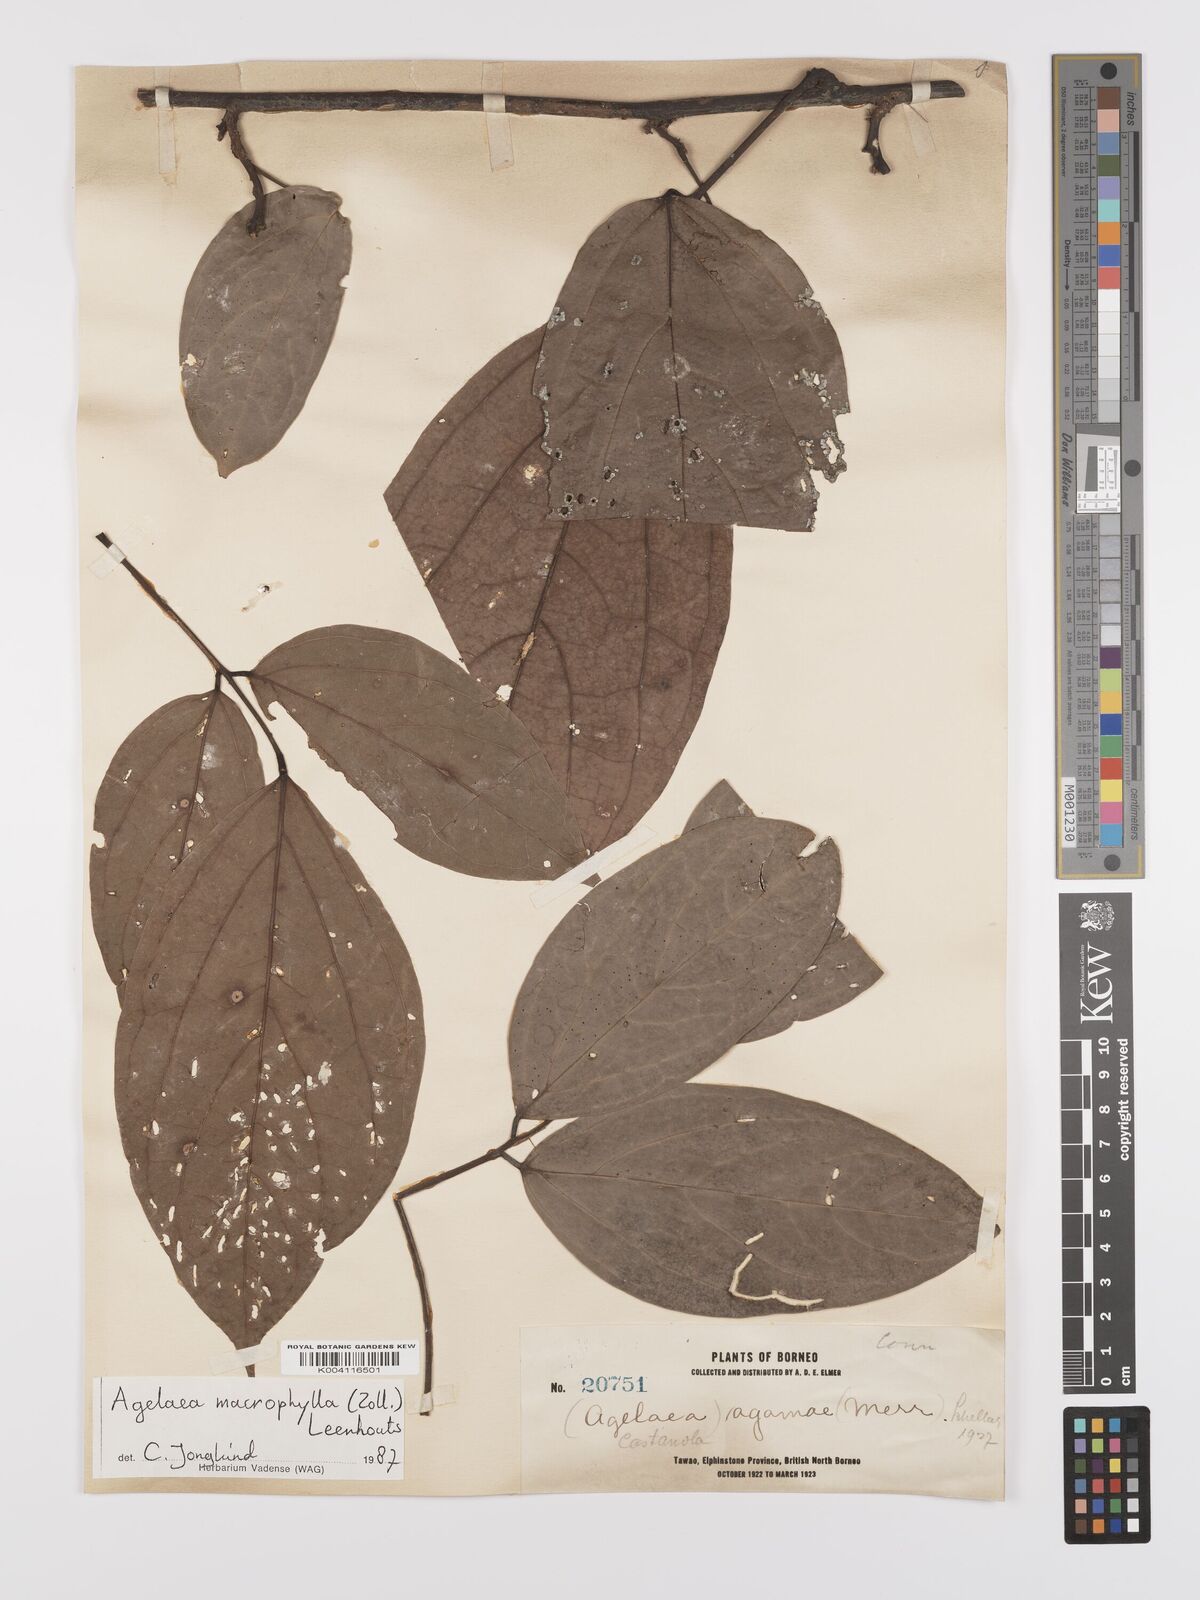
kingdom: Plantae
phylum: Tracheophyta
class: Magnoliopsida
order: Oxalidales
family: Connaraceae
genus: Agelaea
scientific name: Agelaea trinervis
